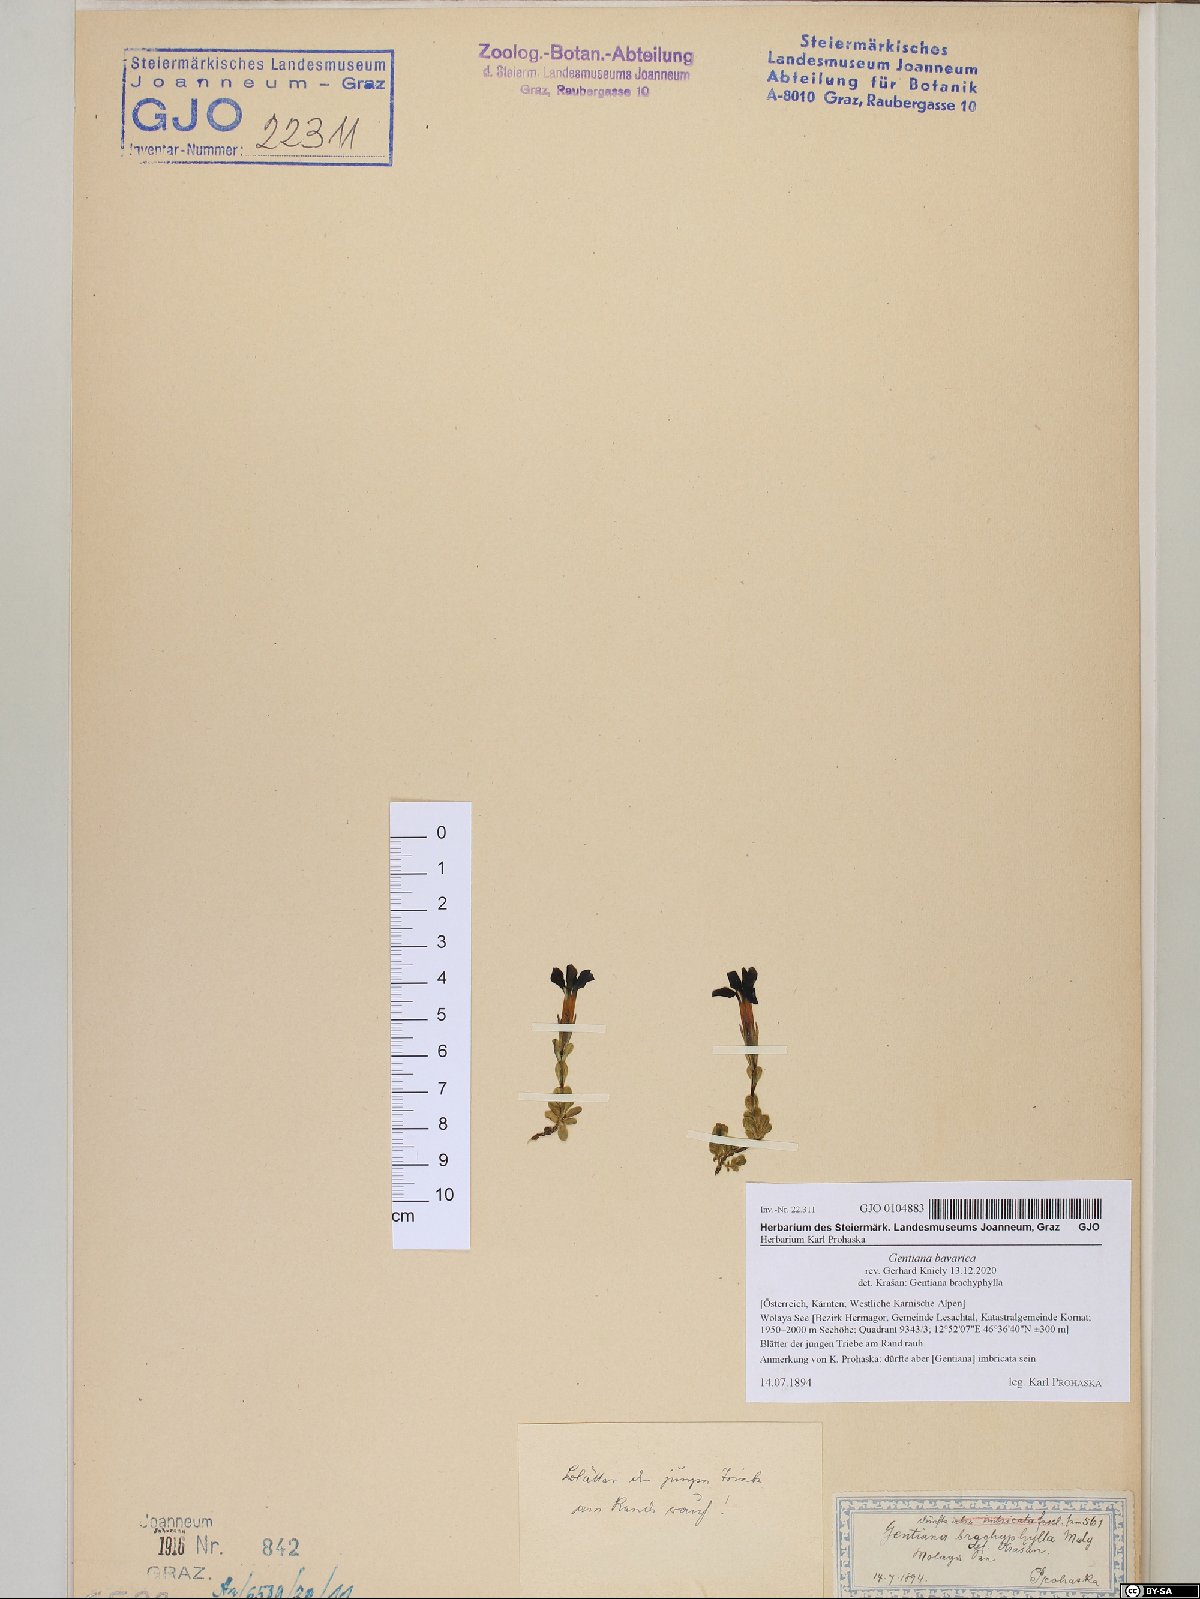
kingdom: Plantae
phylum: Tracheophyta
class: Magnoliopsida
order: Gentianales
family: Gentianaceae
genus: Gentiana
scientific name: Gentiana bavarica
